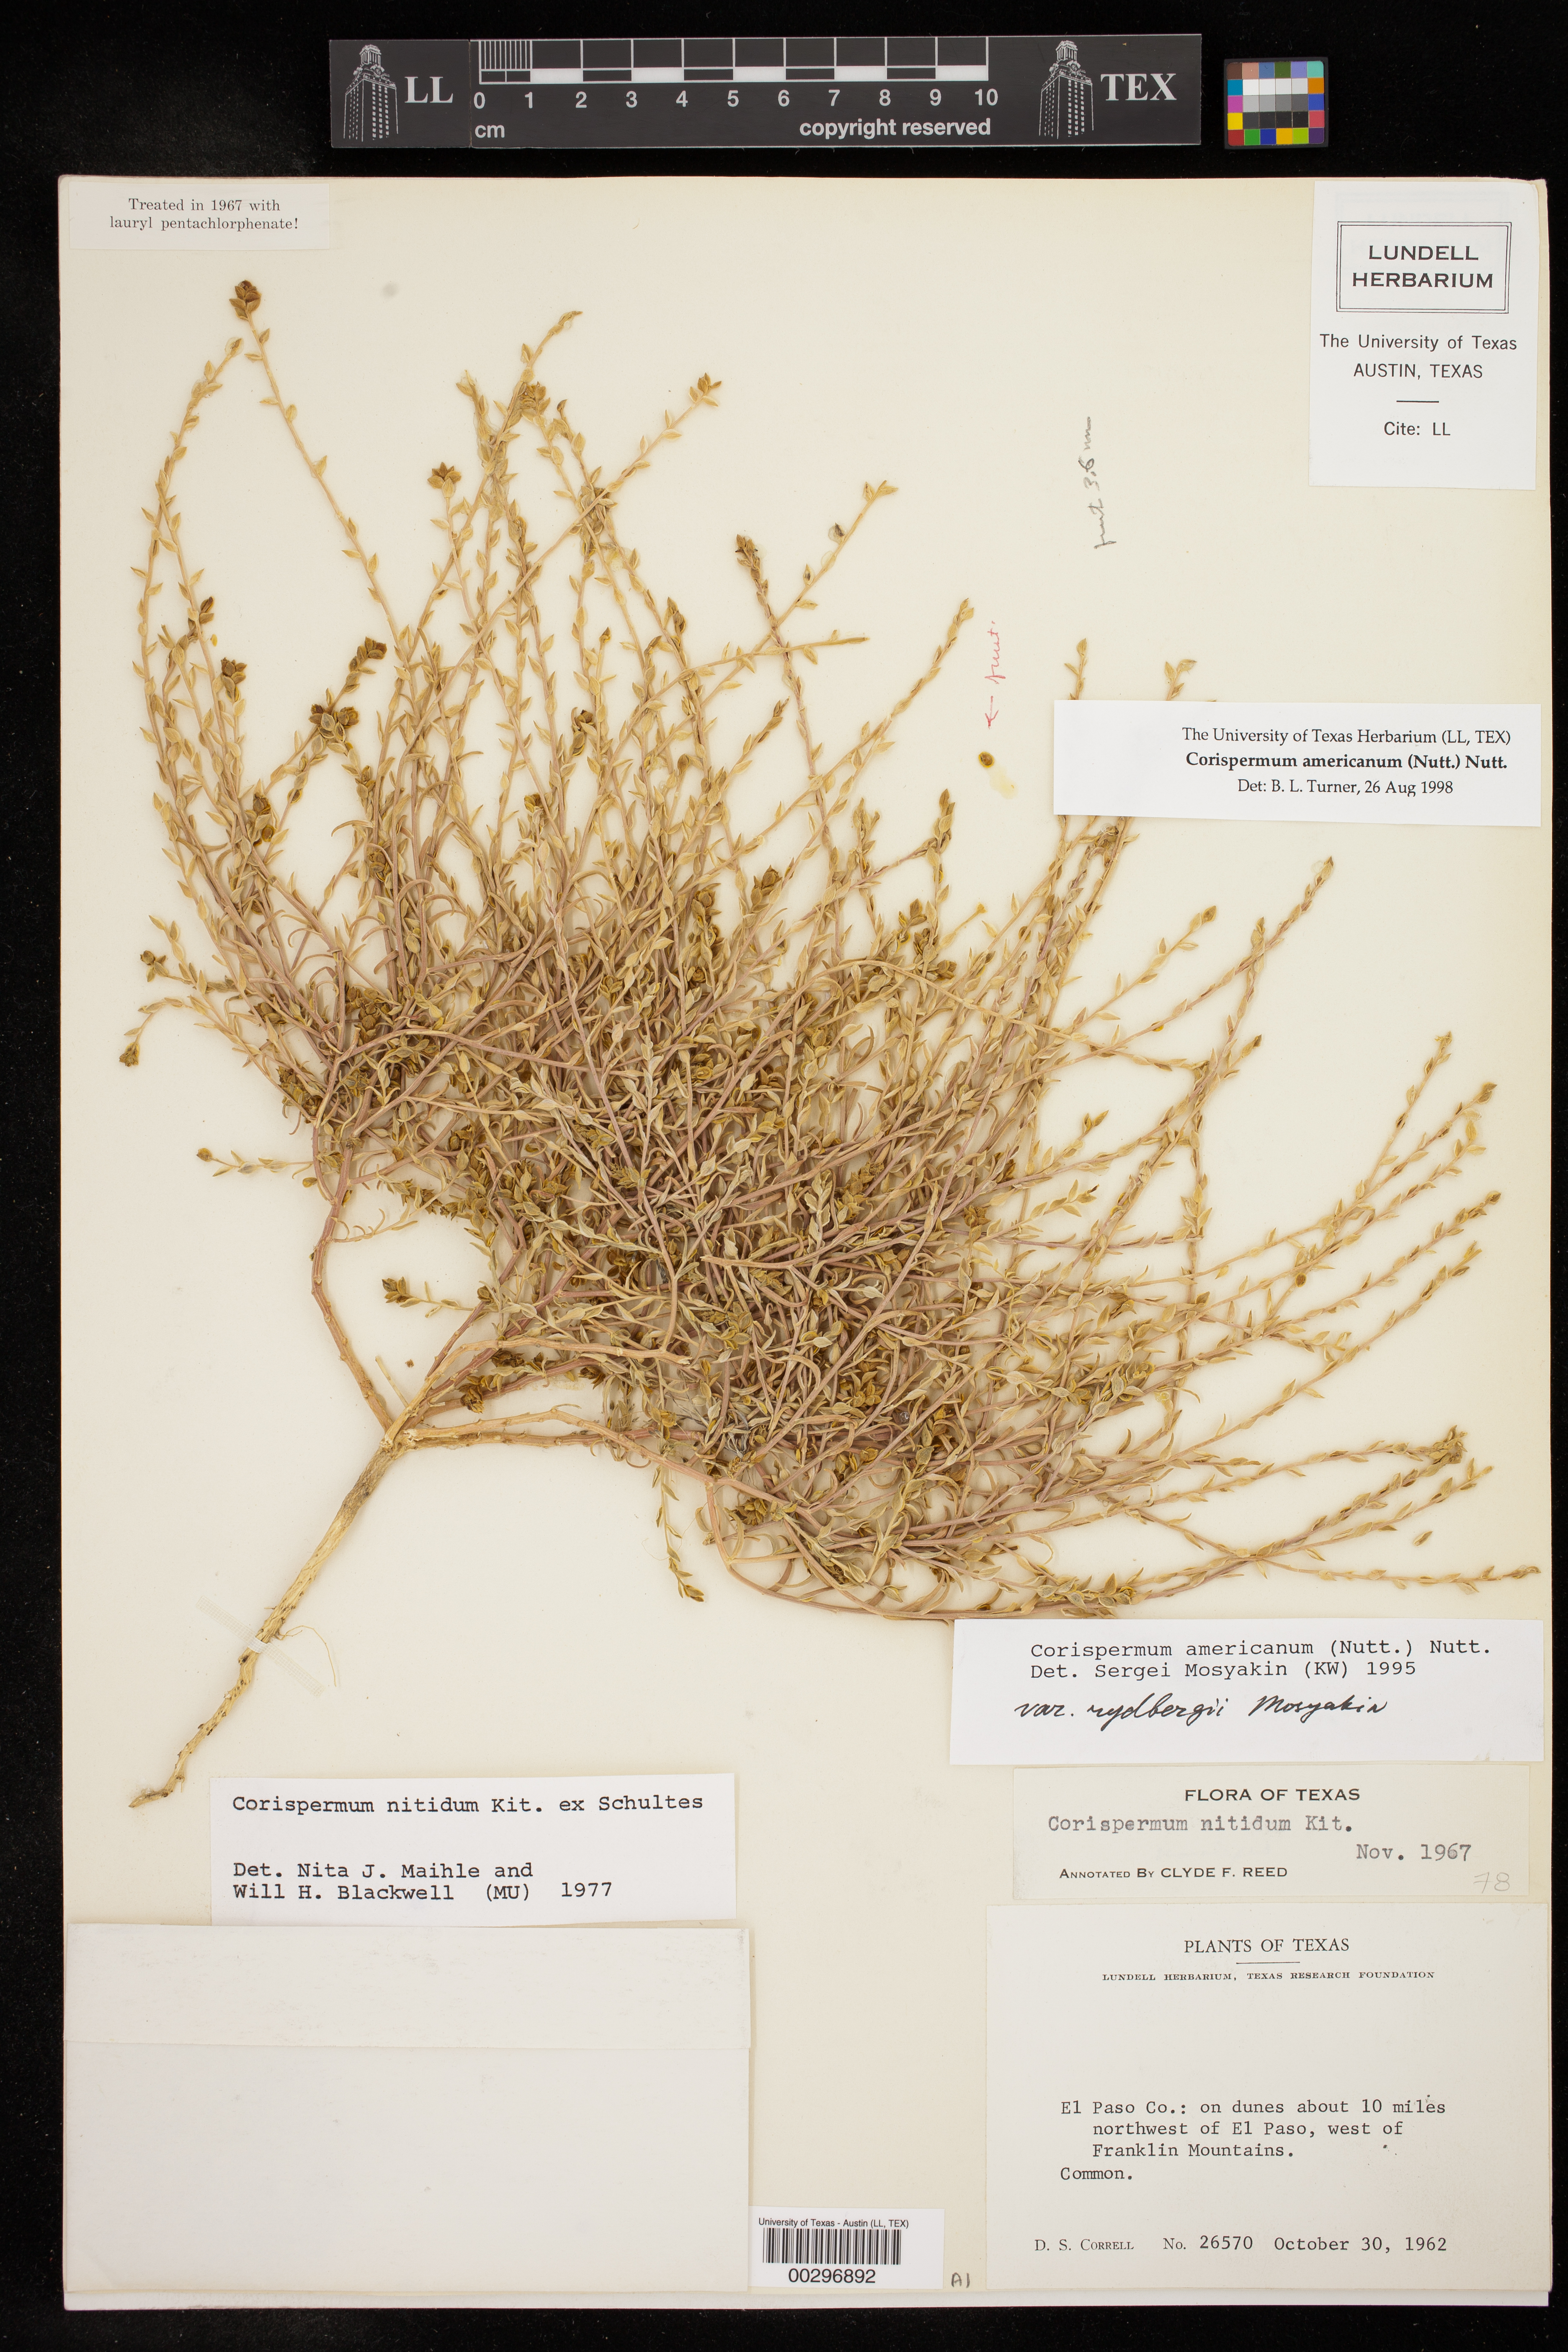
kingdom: Plantae
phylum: Tracheophyta
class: Magnoliopsida
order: Caryophyllales
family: Amaranthaceae
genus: Corispermum
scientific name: Corispermum americanum
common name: American bugseed
